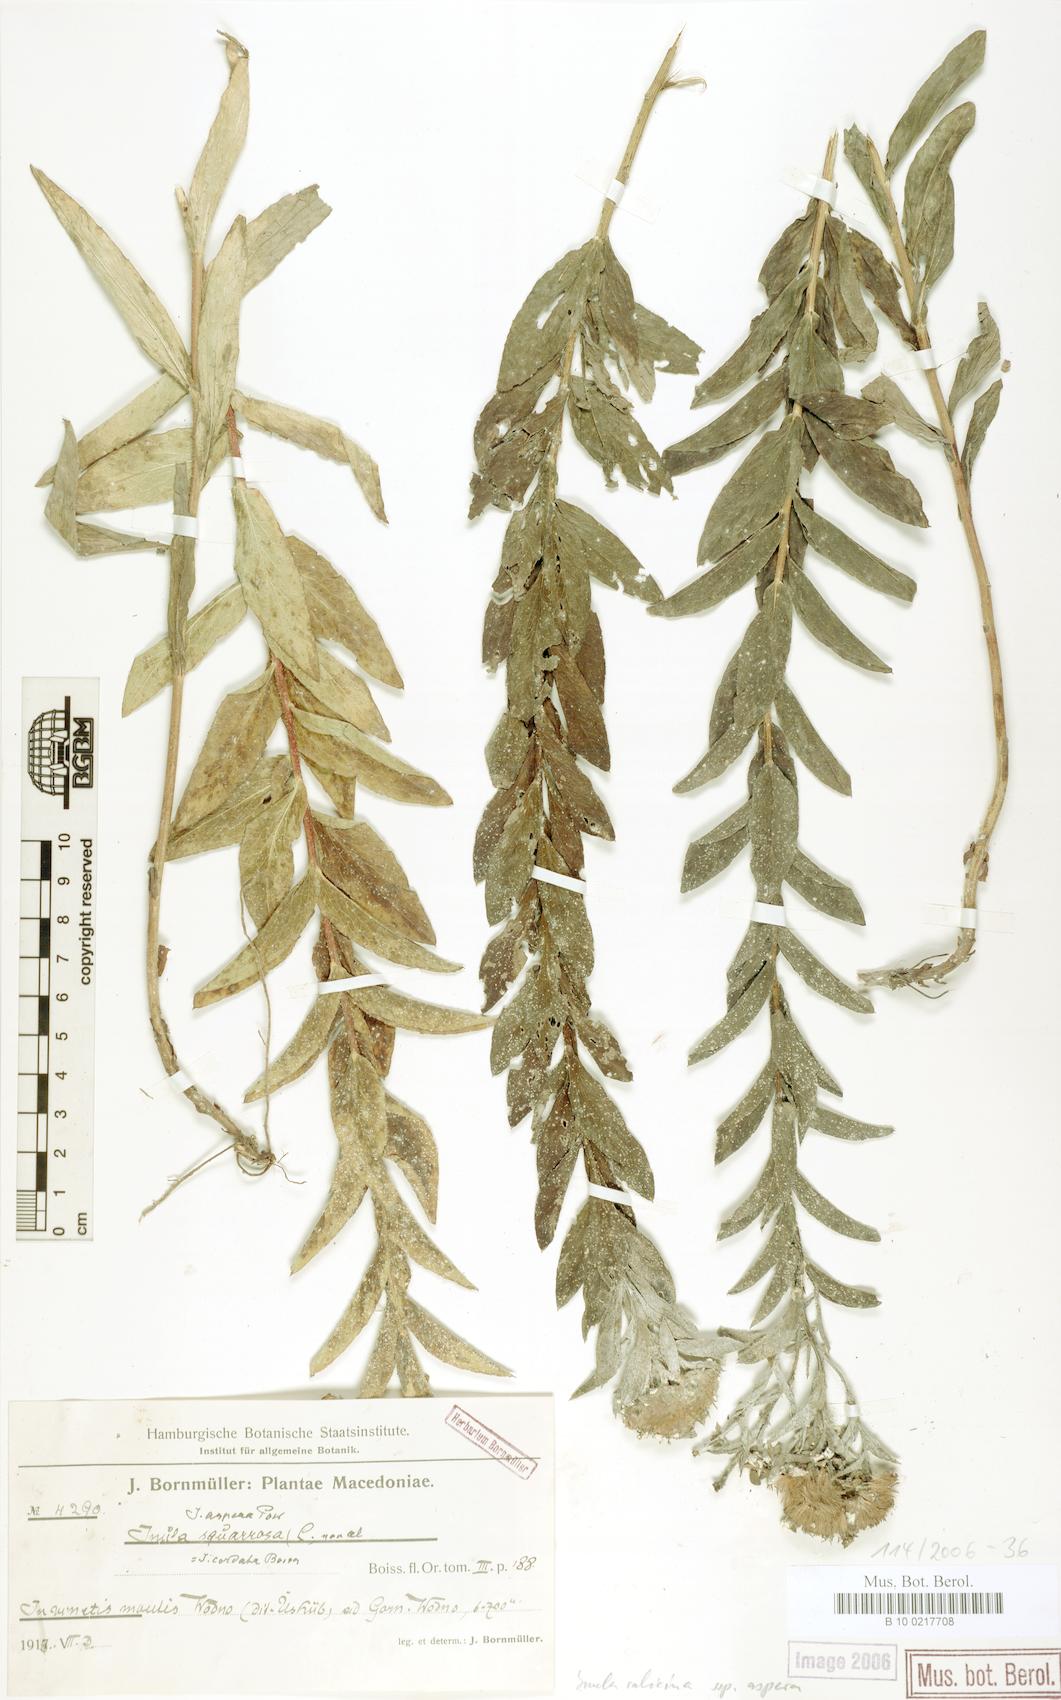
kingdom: Plantae
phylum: Tracheophyta
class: Magnoliopsida
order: Asterales
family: Asteraceae
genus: Pentanema
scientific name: Pentanema spiraeifolium
